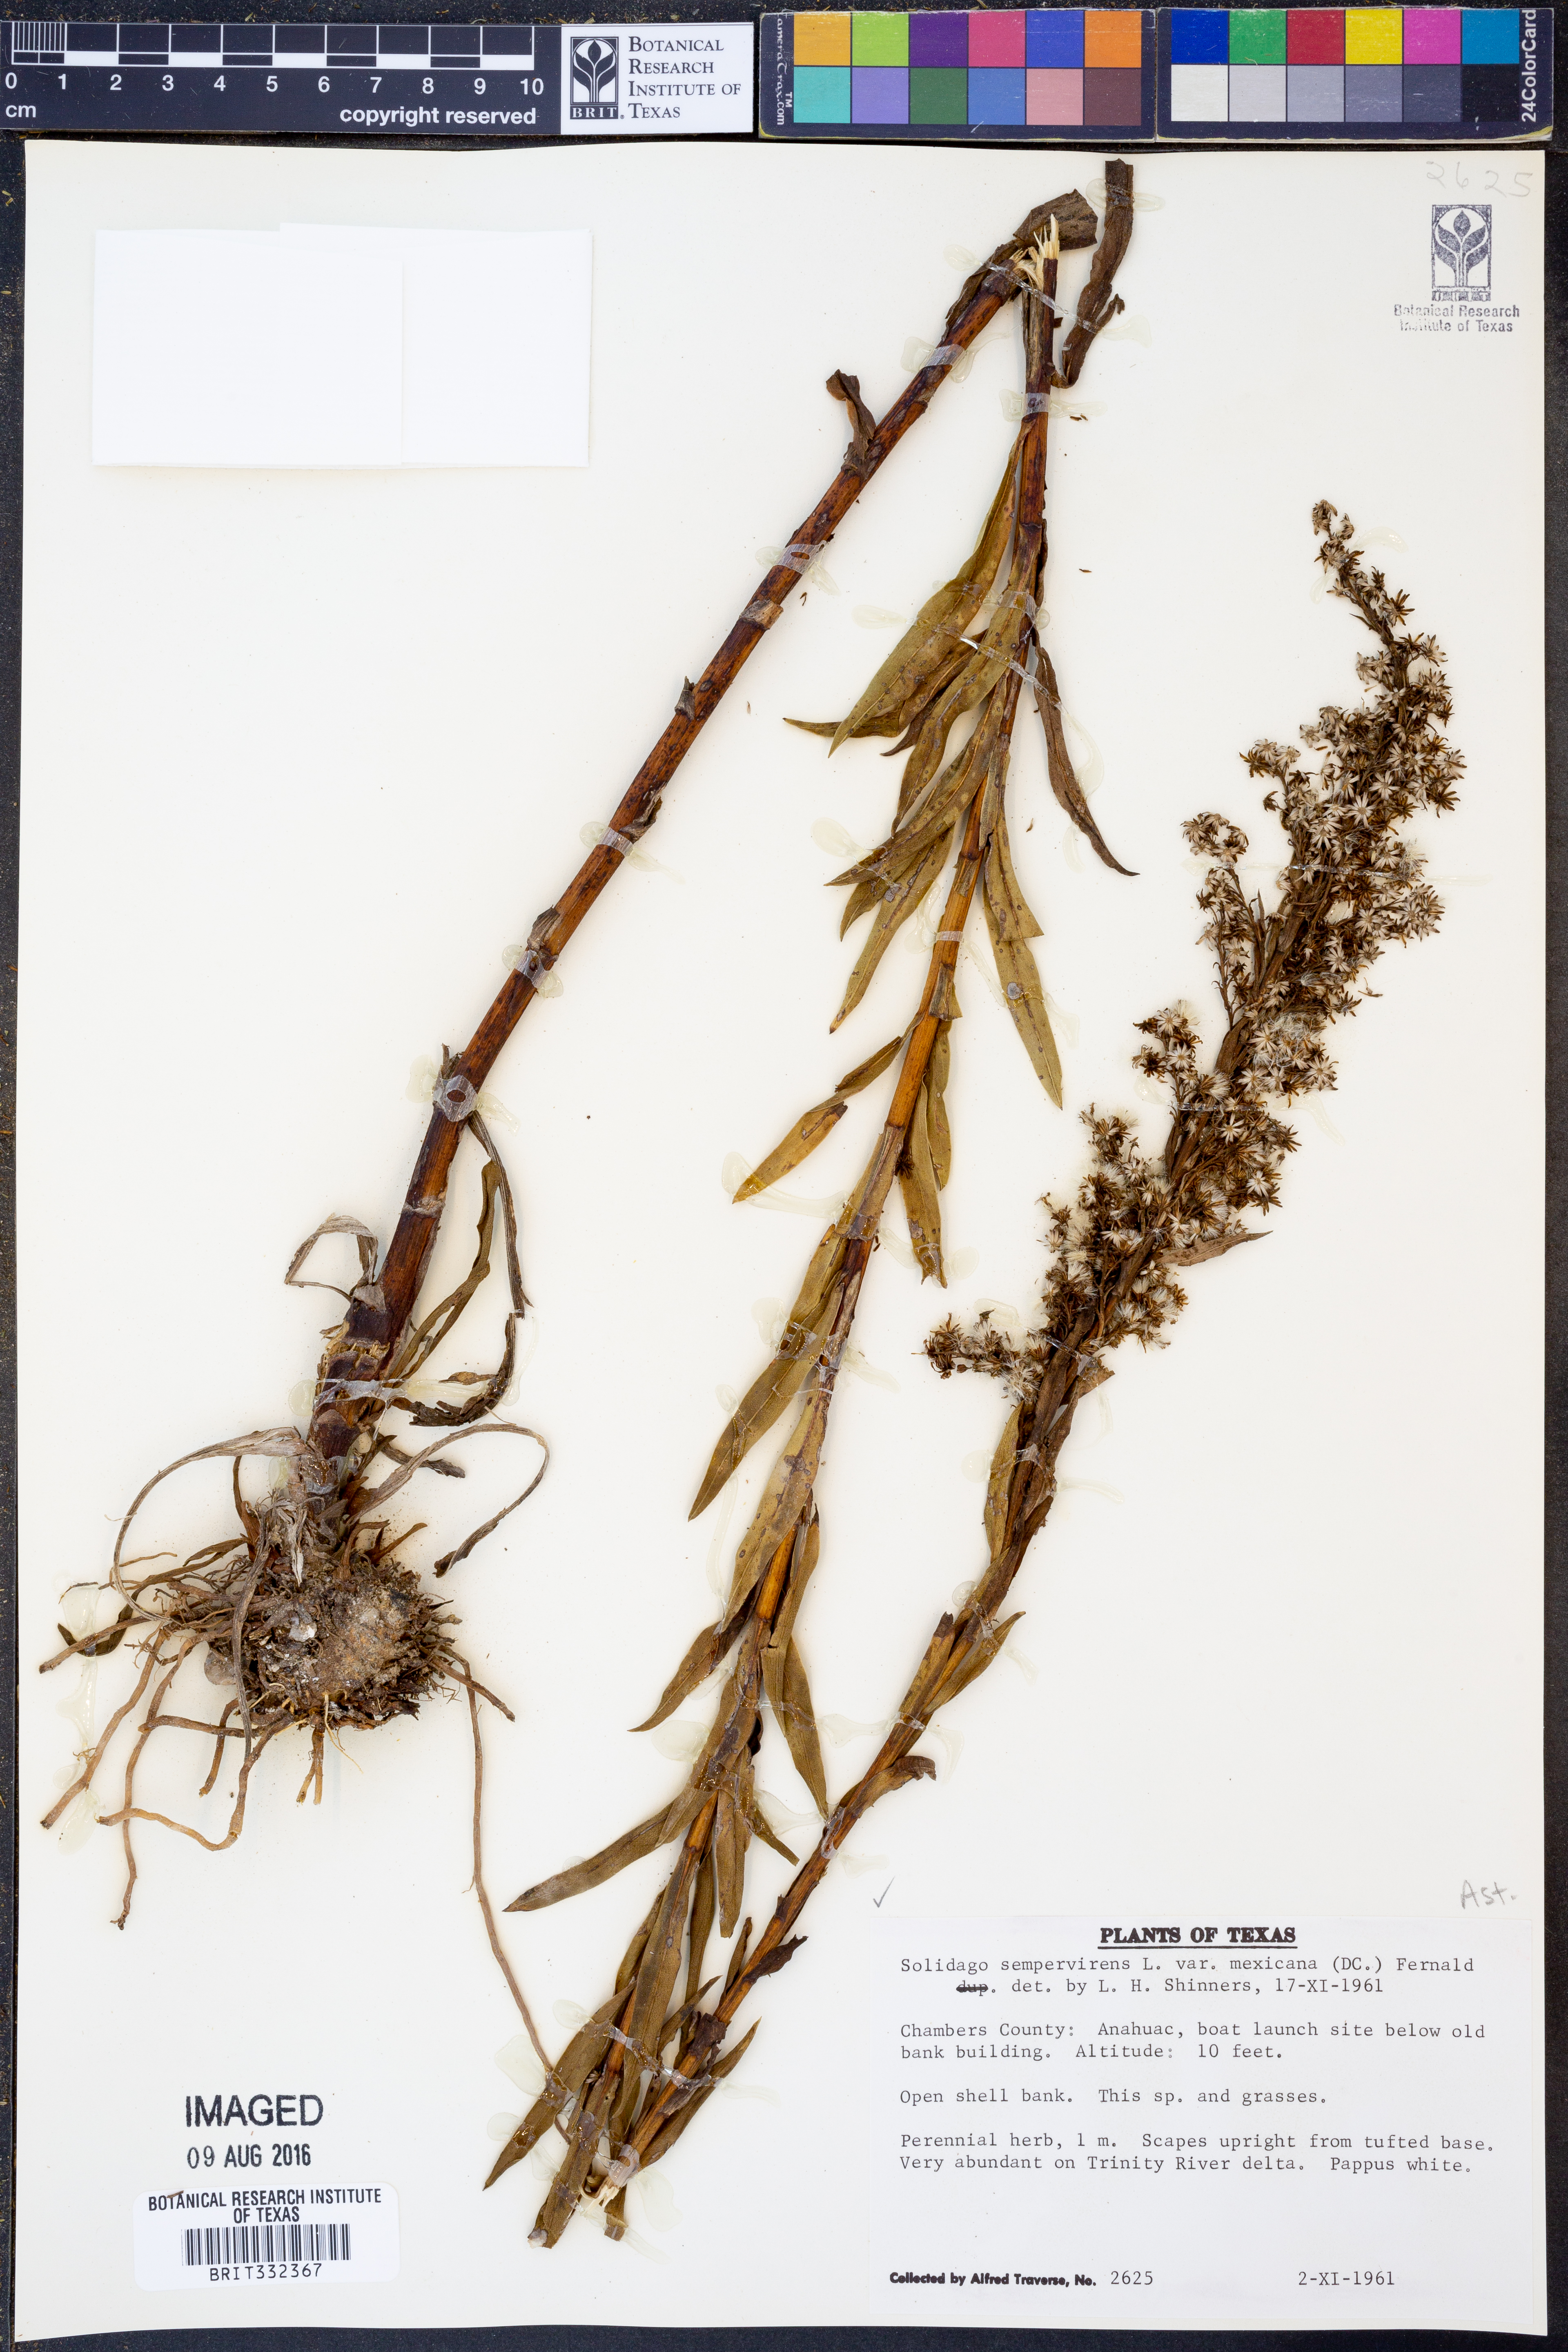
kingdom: Plantae
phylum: Tracheophyta
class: Magnoliopsida
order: Asterales
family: Asteraceae
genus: Solidago
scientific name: Solidago mexicana
